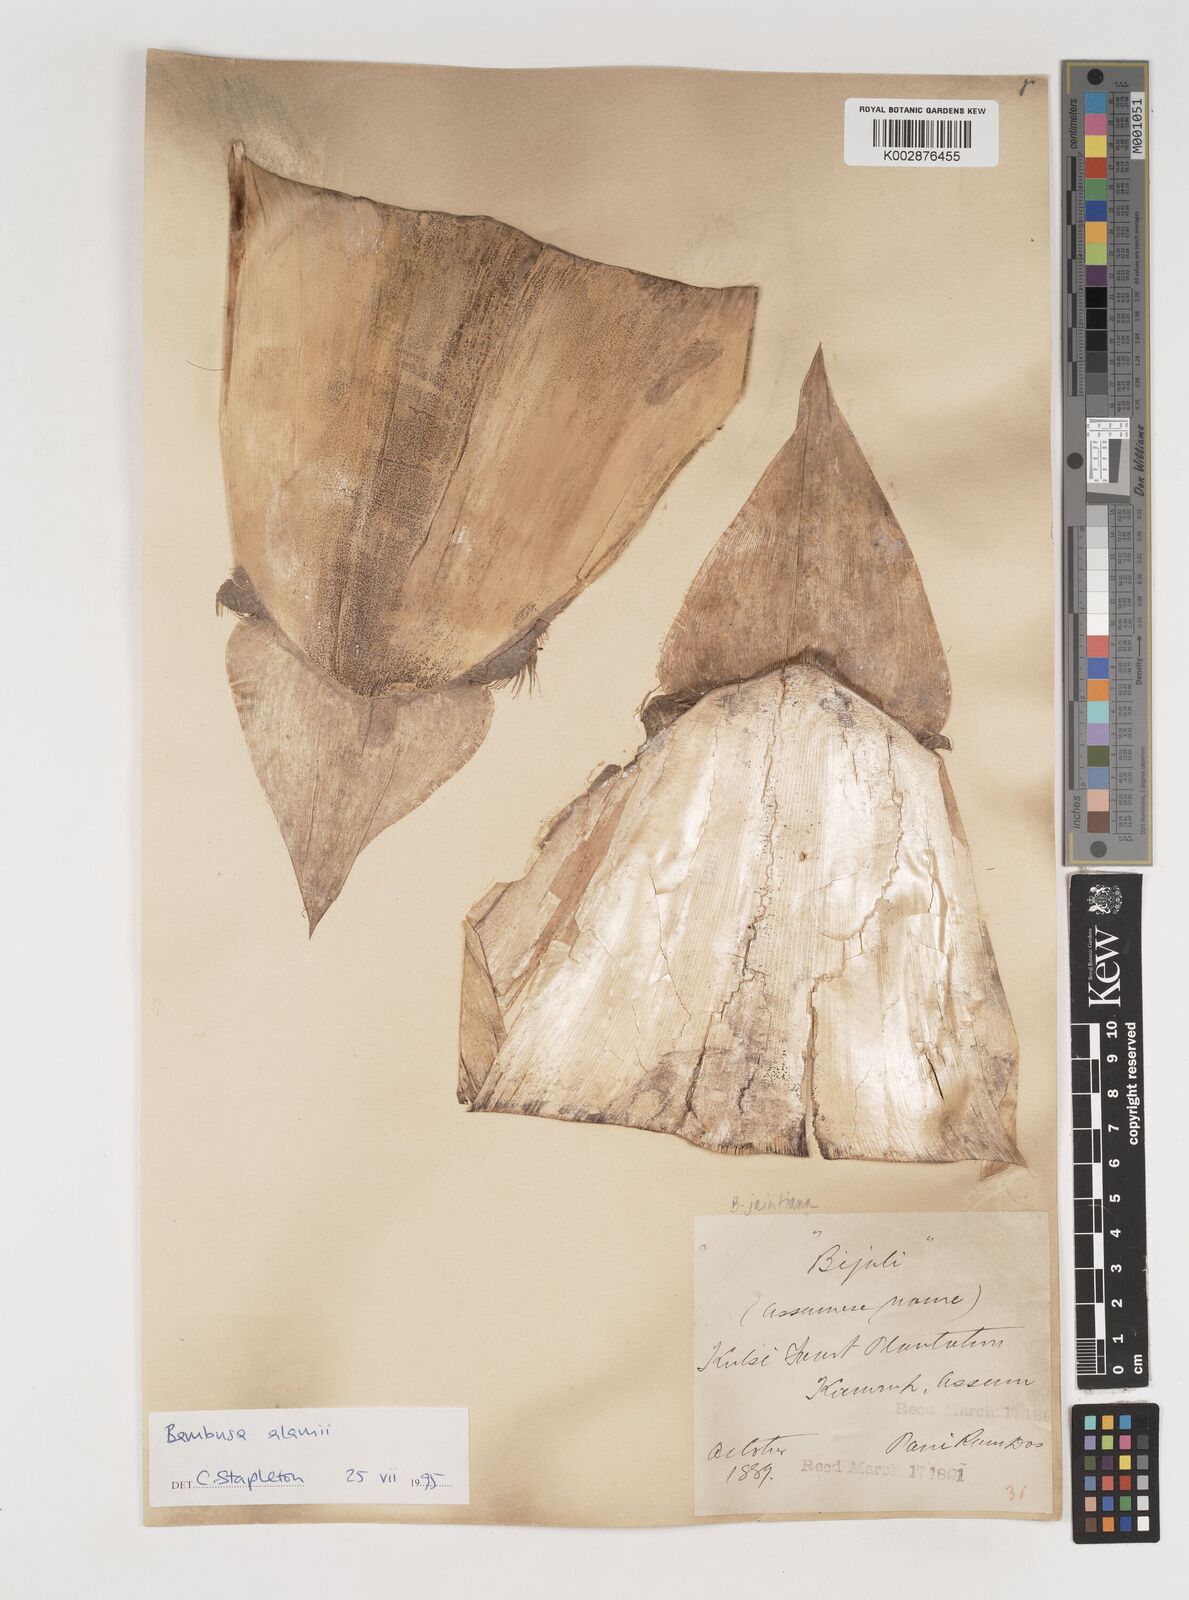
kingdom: Plantae
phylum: Tracheophyta
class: Liliopsida
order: Poales
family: Poaceae
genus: Bambusa
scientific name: Bambusa jaintiana
